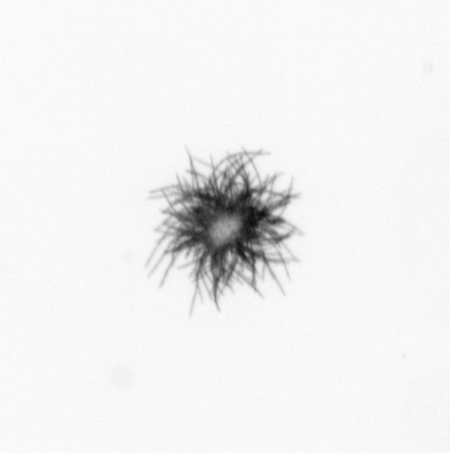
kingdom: Bacteria
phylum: Cyanobacteria
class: Cyanobacteriia
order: Cyanobacteriales
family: Microcoleaceae
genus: Trichodesmium
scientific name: Trichodesmium
